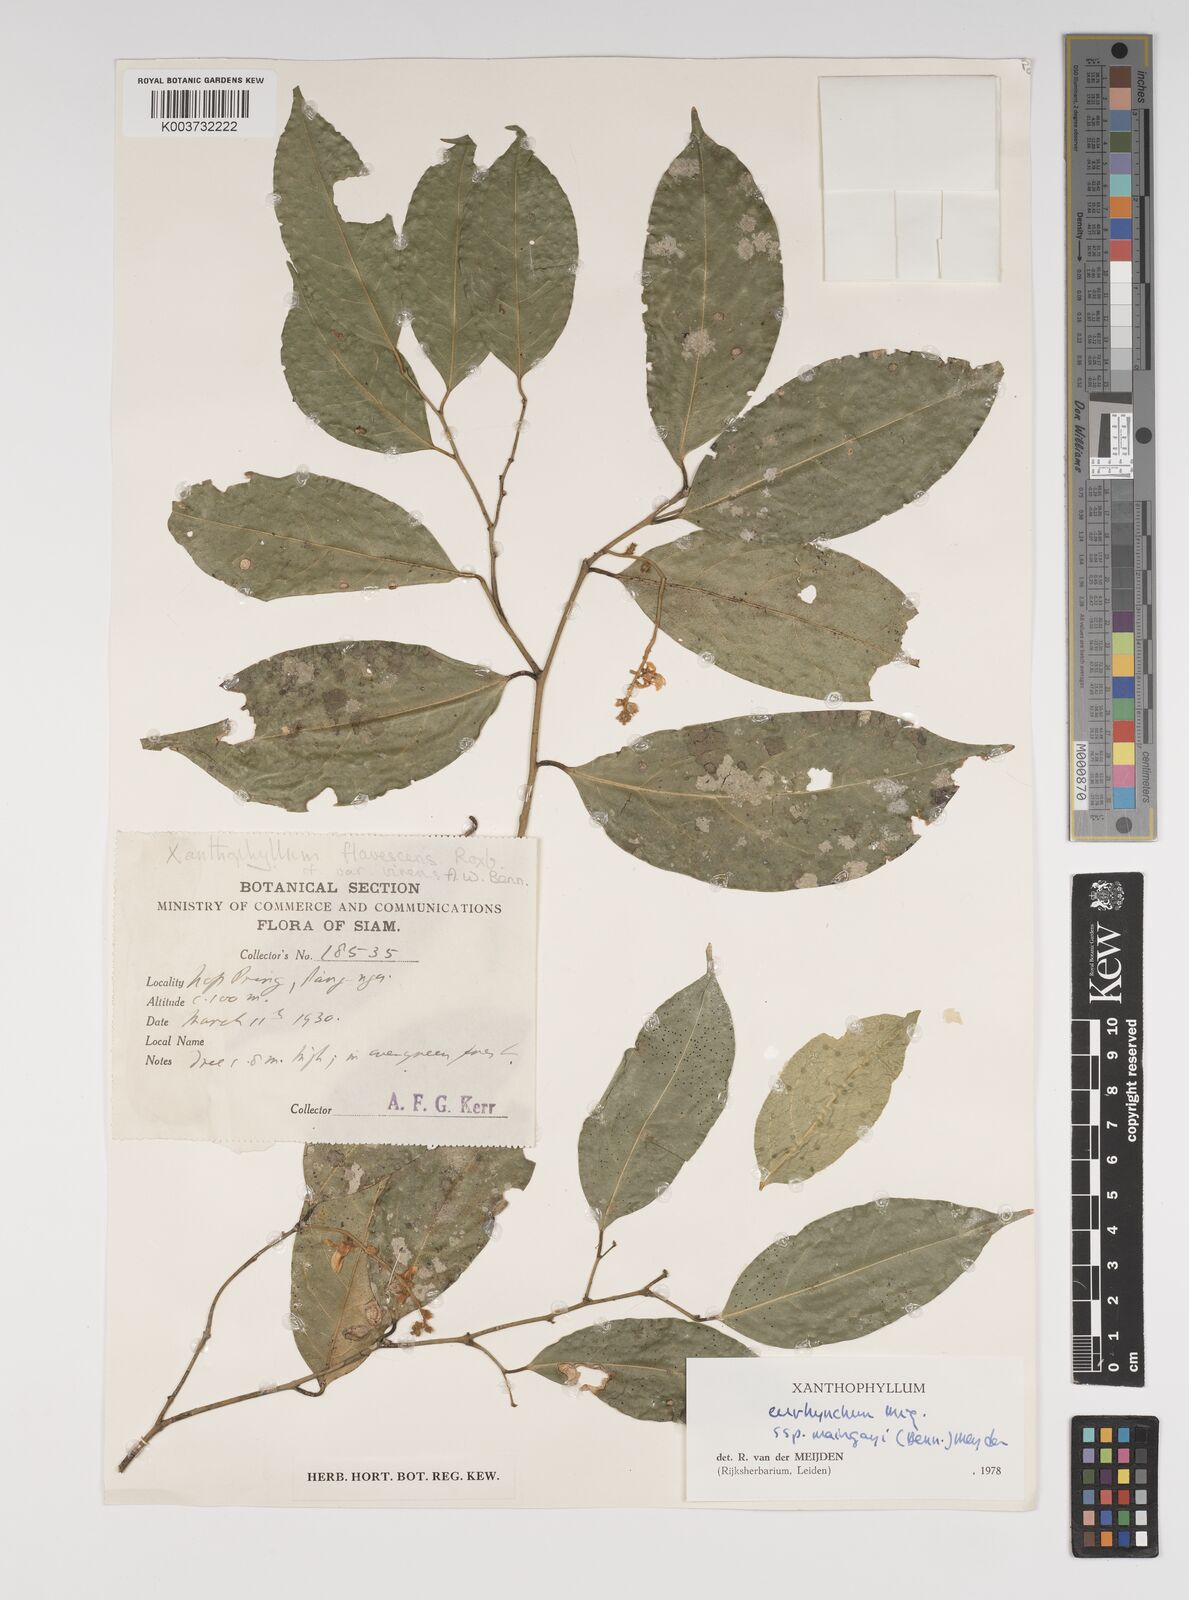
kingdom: Plantae
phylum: Tracheophyta
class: Magnoliopsida
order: Fabales
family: Polygalaceae
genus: Xanthophyllum
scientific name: Xanthophyllum eurhynchum
